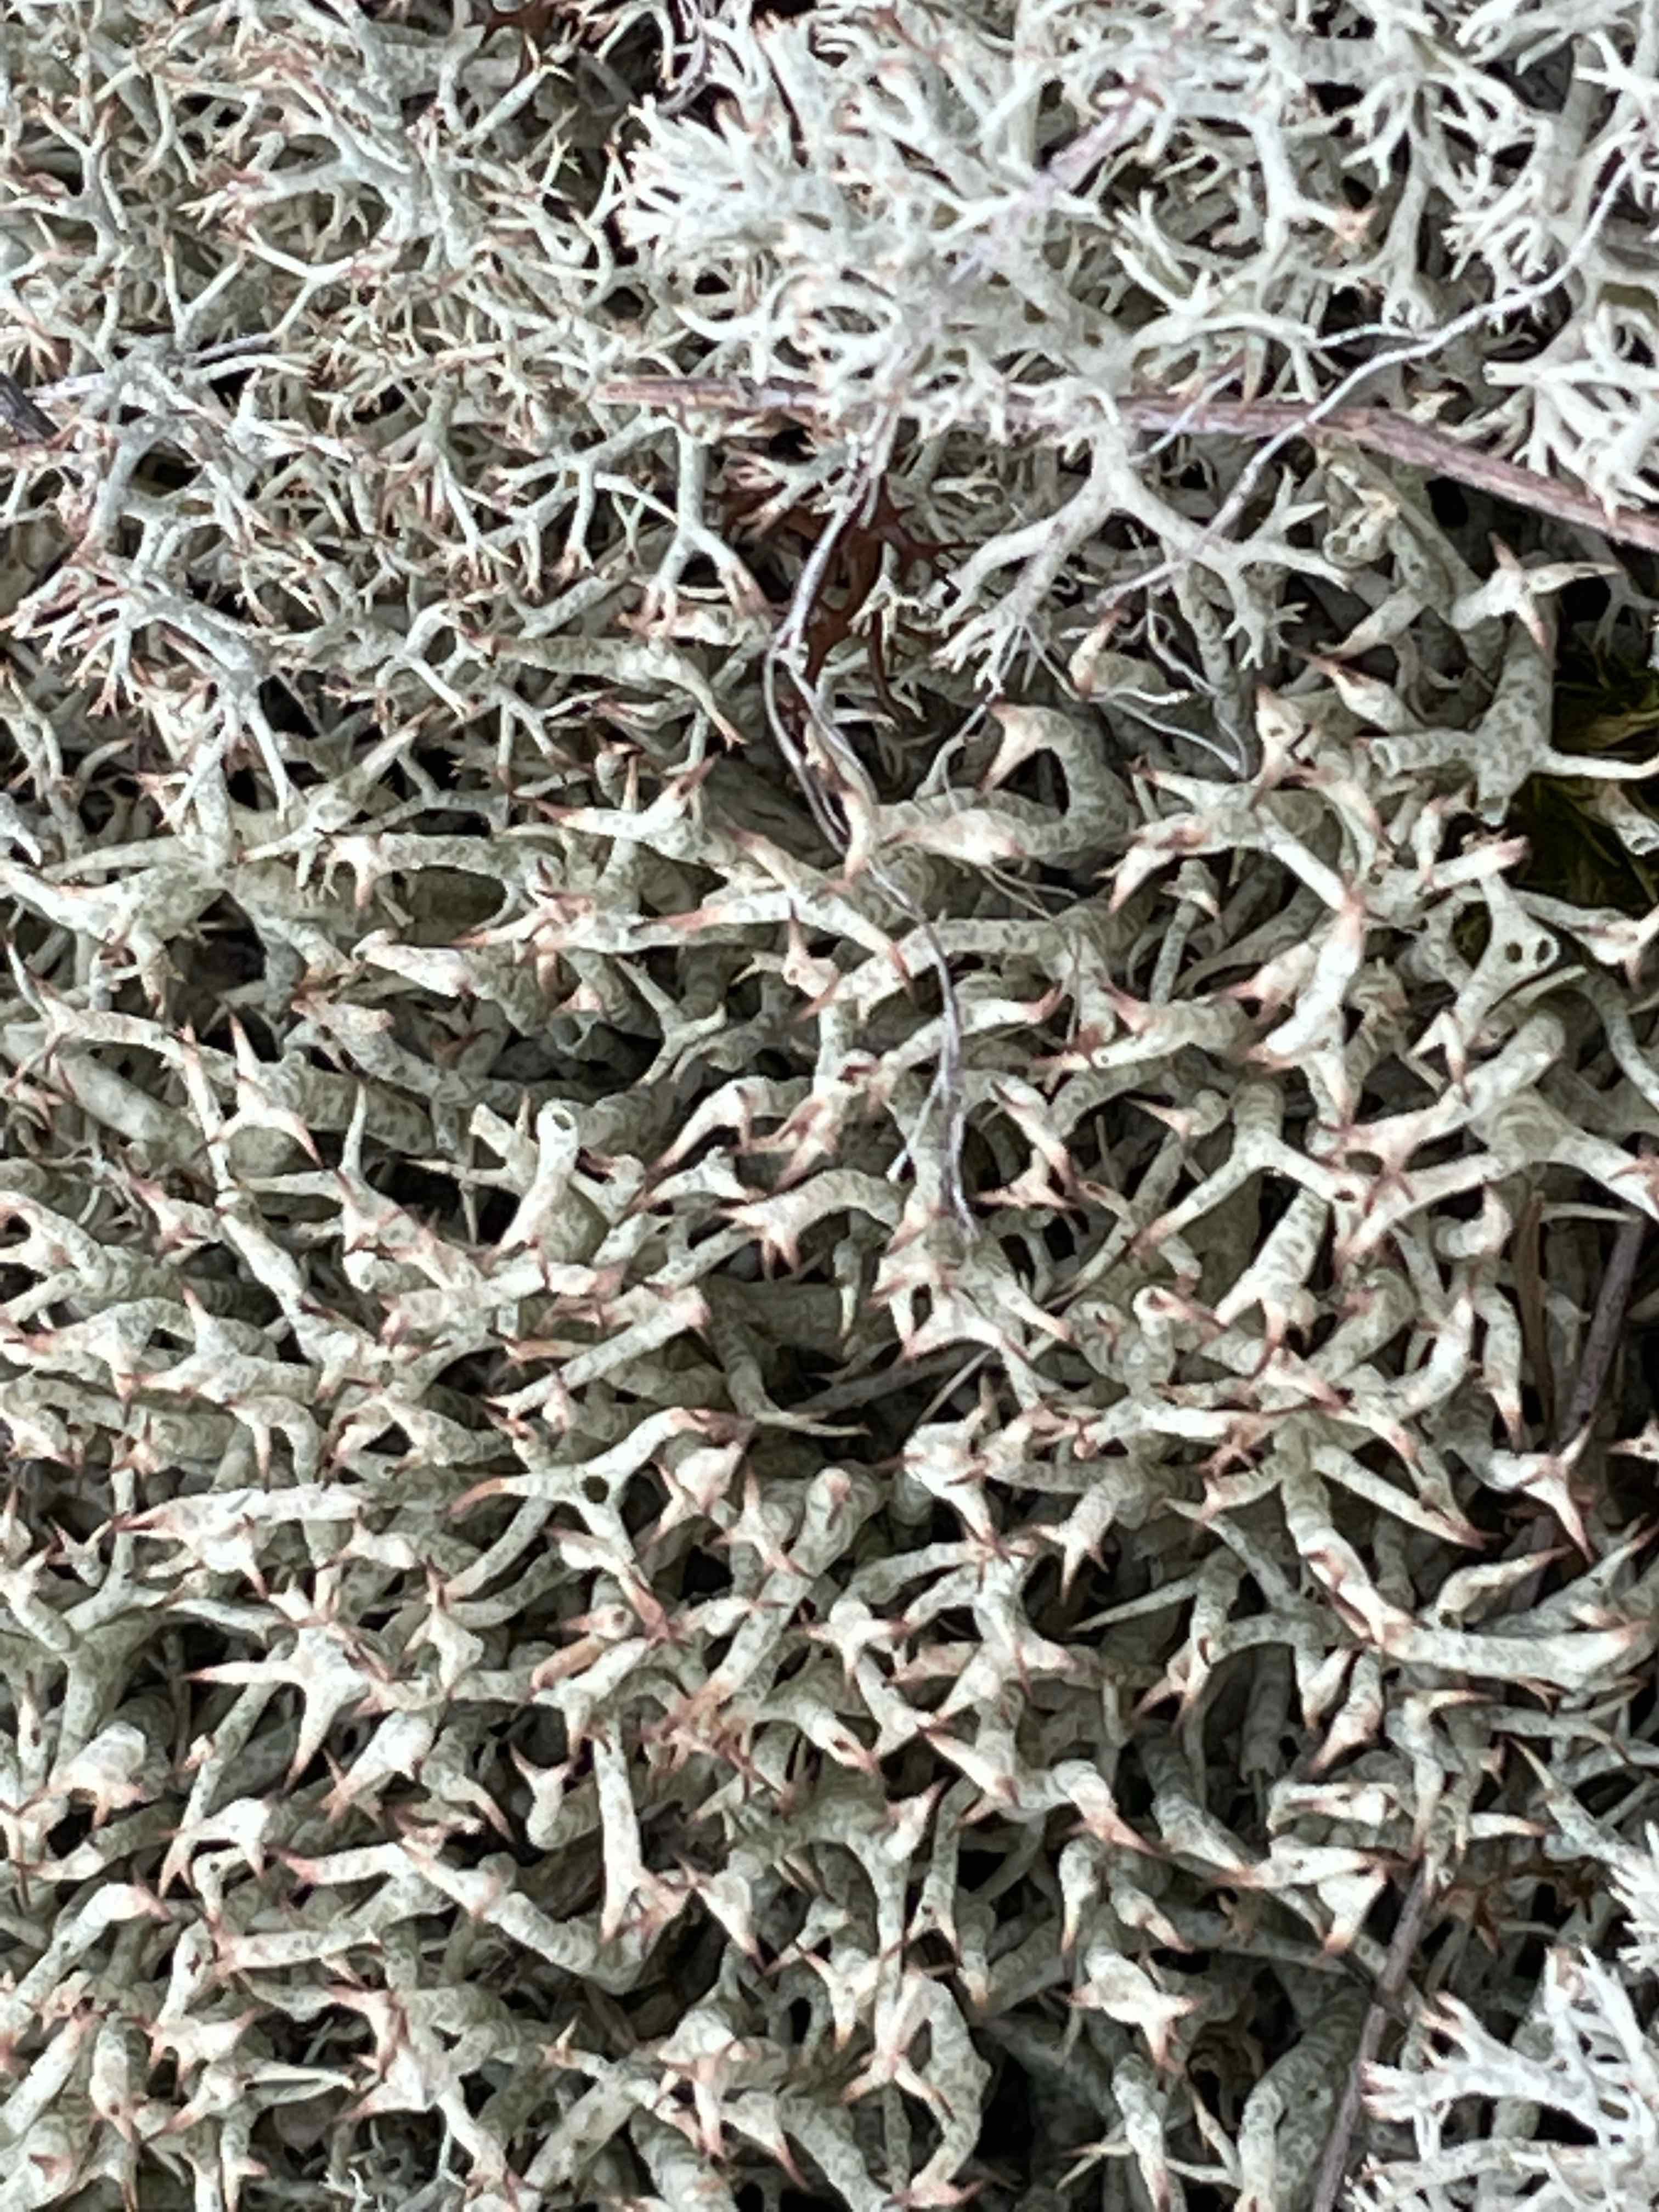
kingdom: Fungi
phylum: Ascomycota
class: Lecanoromycetes
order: Lecanorales
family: Cladoniaceae
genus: Cladonia
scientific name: Cladonia uncialis
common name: pigget bægerlav
